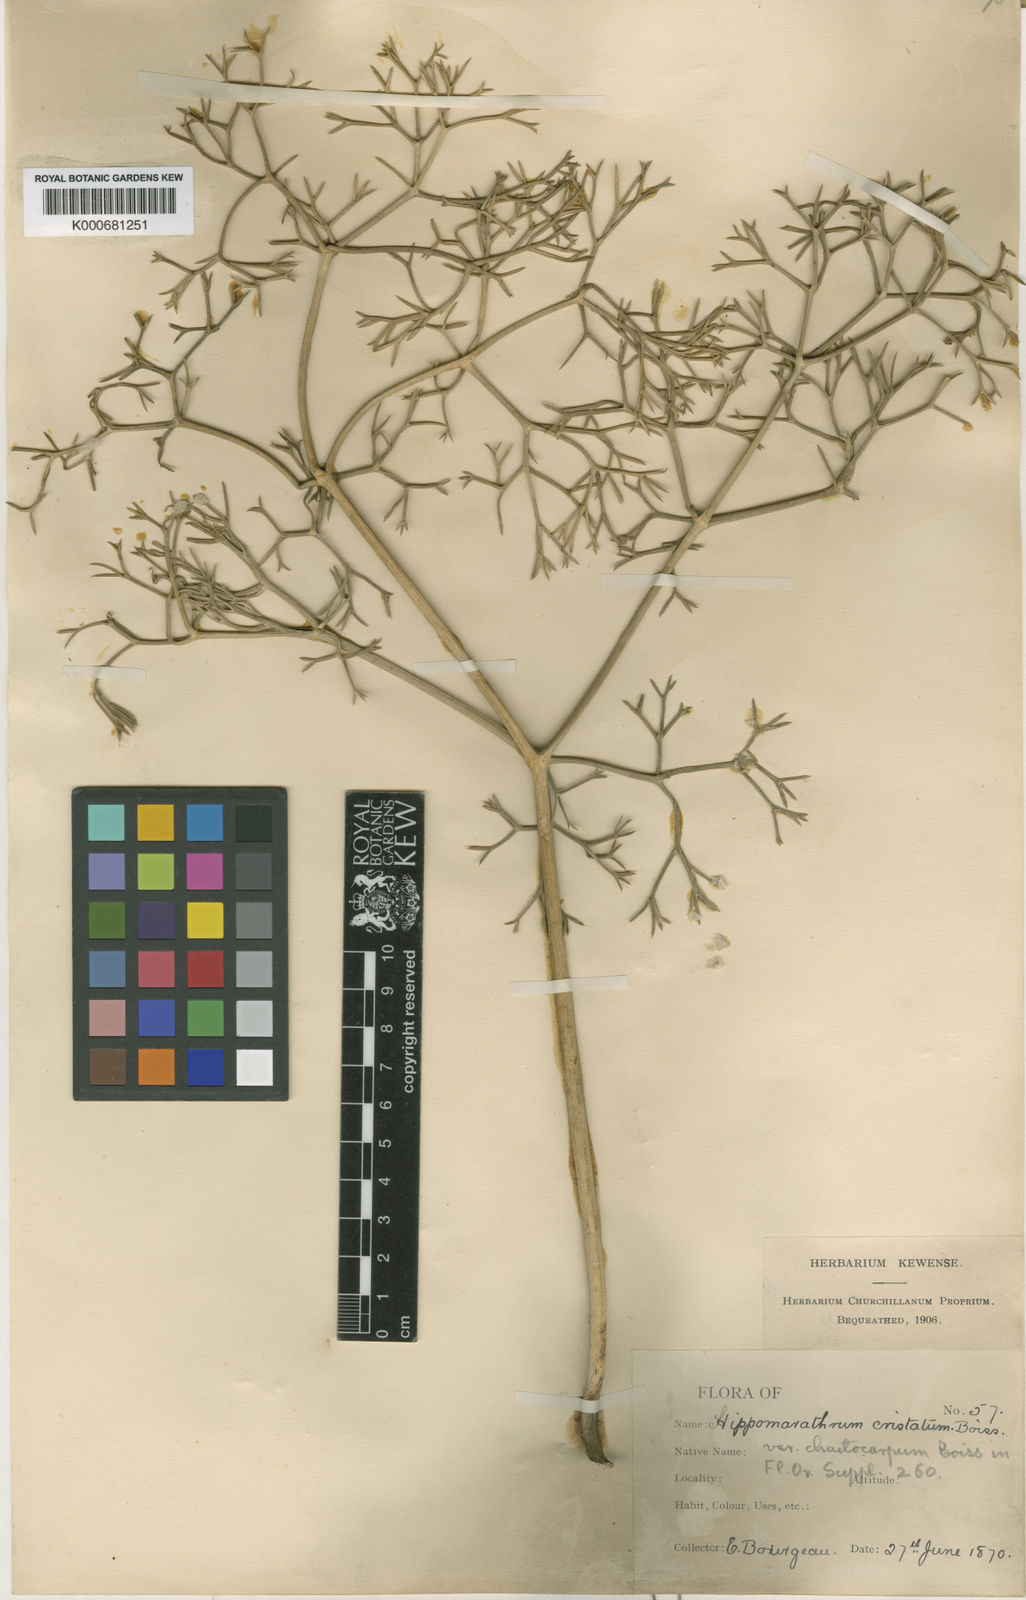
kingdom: Plantae
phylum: Tracheophyta
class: Magnoliopsida
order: Apiales
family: Apiaceae
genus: Hippomarathrum
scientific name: Hippomarathrum
